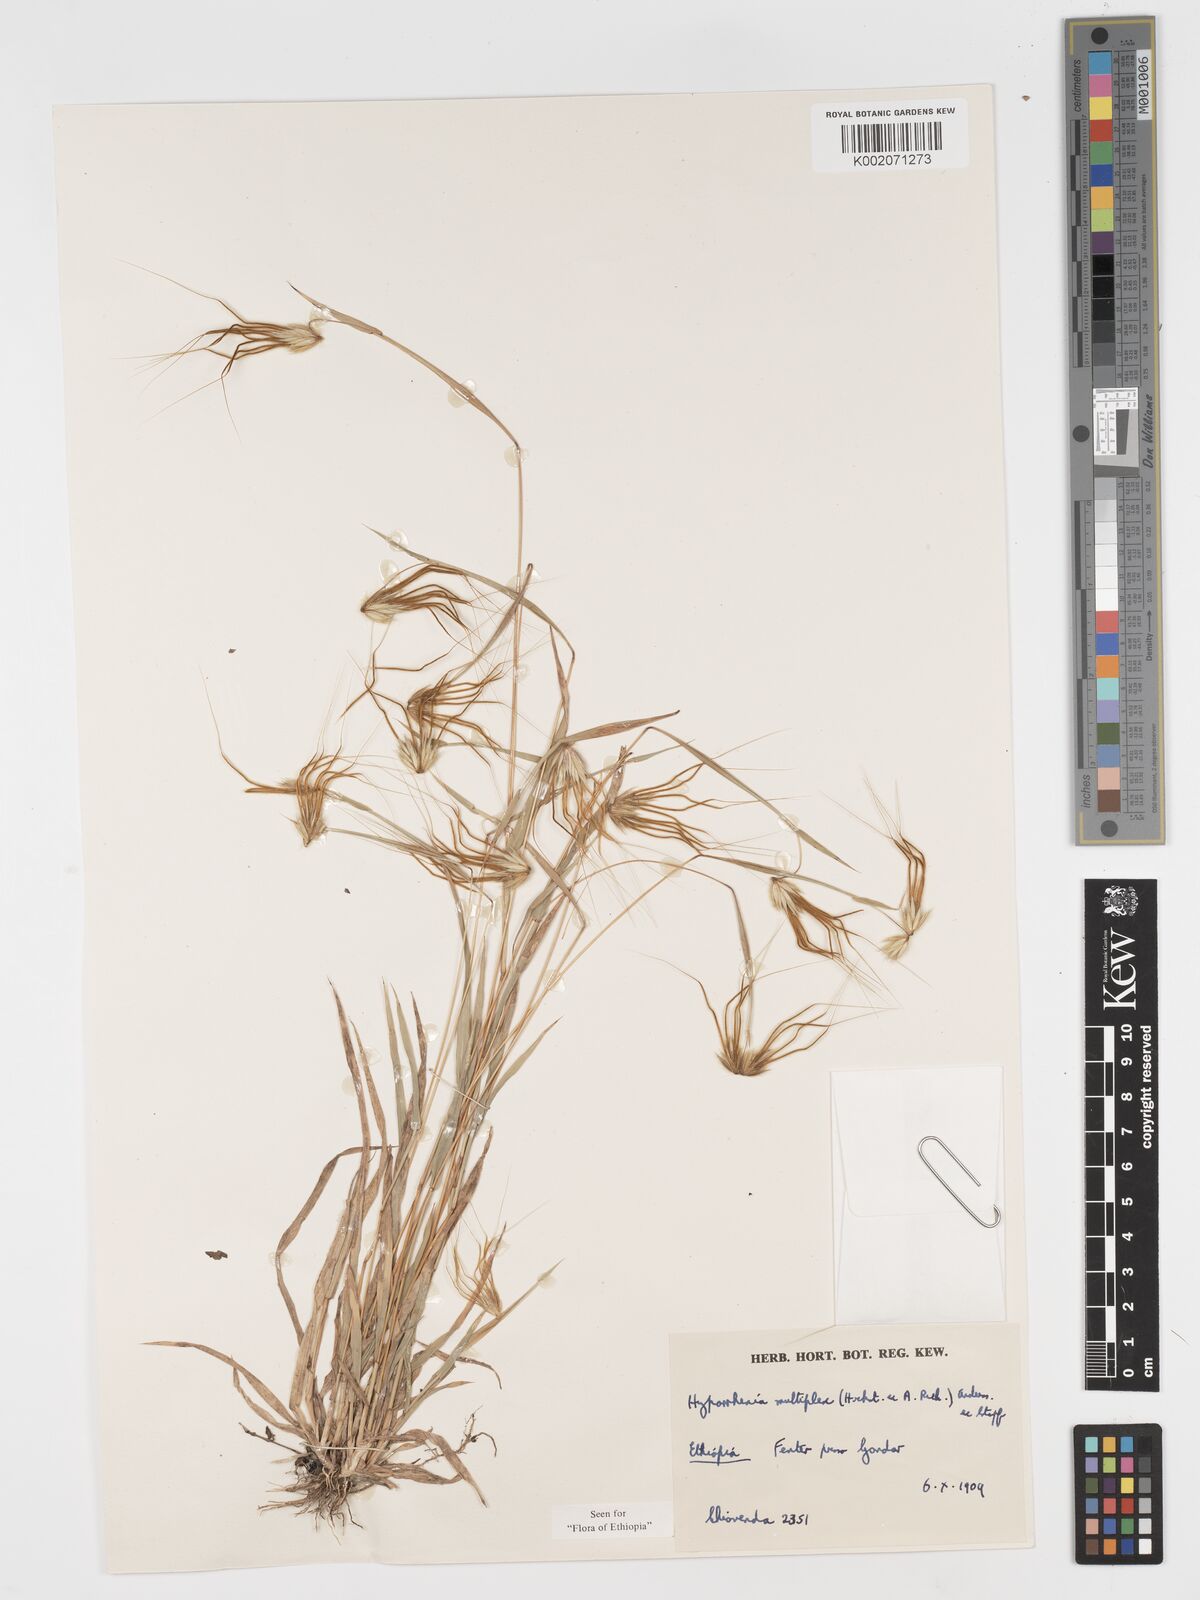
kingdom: Plantae
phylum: Tracheophyta
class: Liliopsida
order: Poales
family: Poaceae
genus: Hyparrhenia
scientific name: Hyparrhenia multiplex
